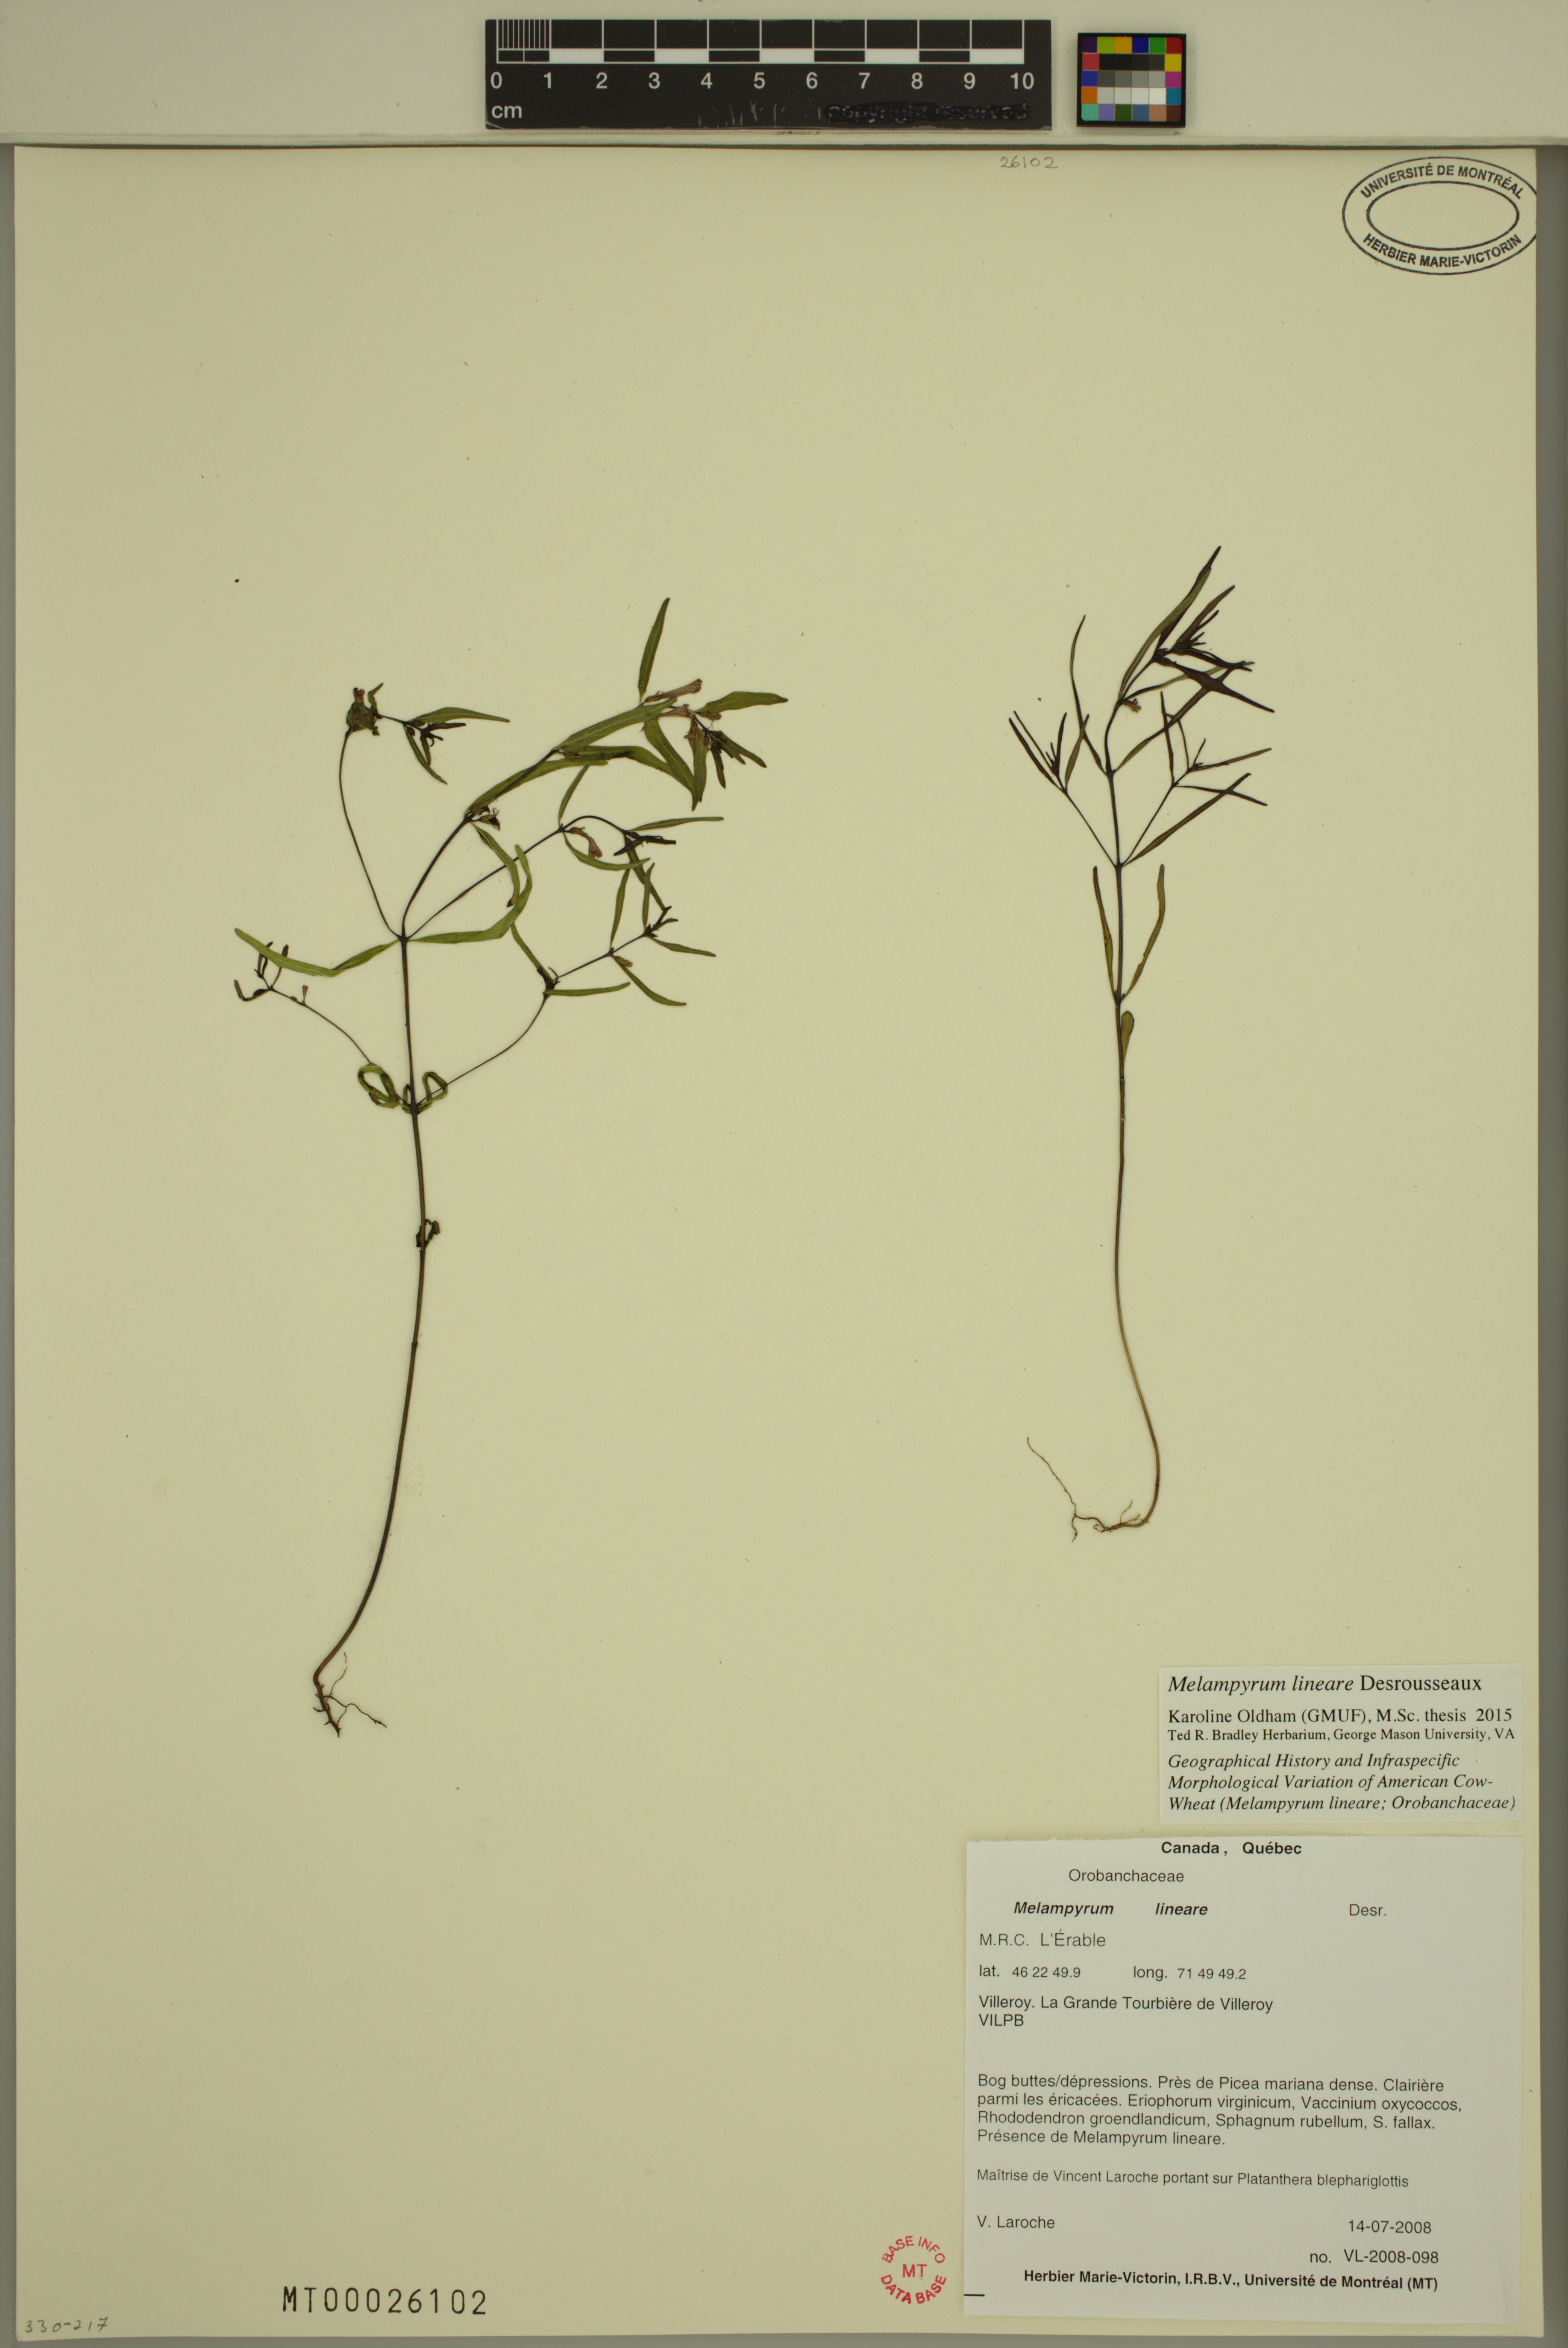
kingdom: Plantae
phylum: Tracheophyta
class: Magnoliopsida
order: Lamiales
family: Orobanchaceae
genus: Melampyrum
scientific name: Melampyrum lineare
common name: American cow-wheat
